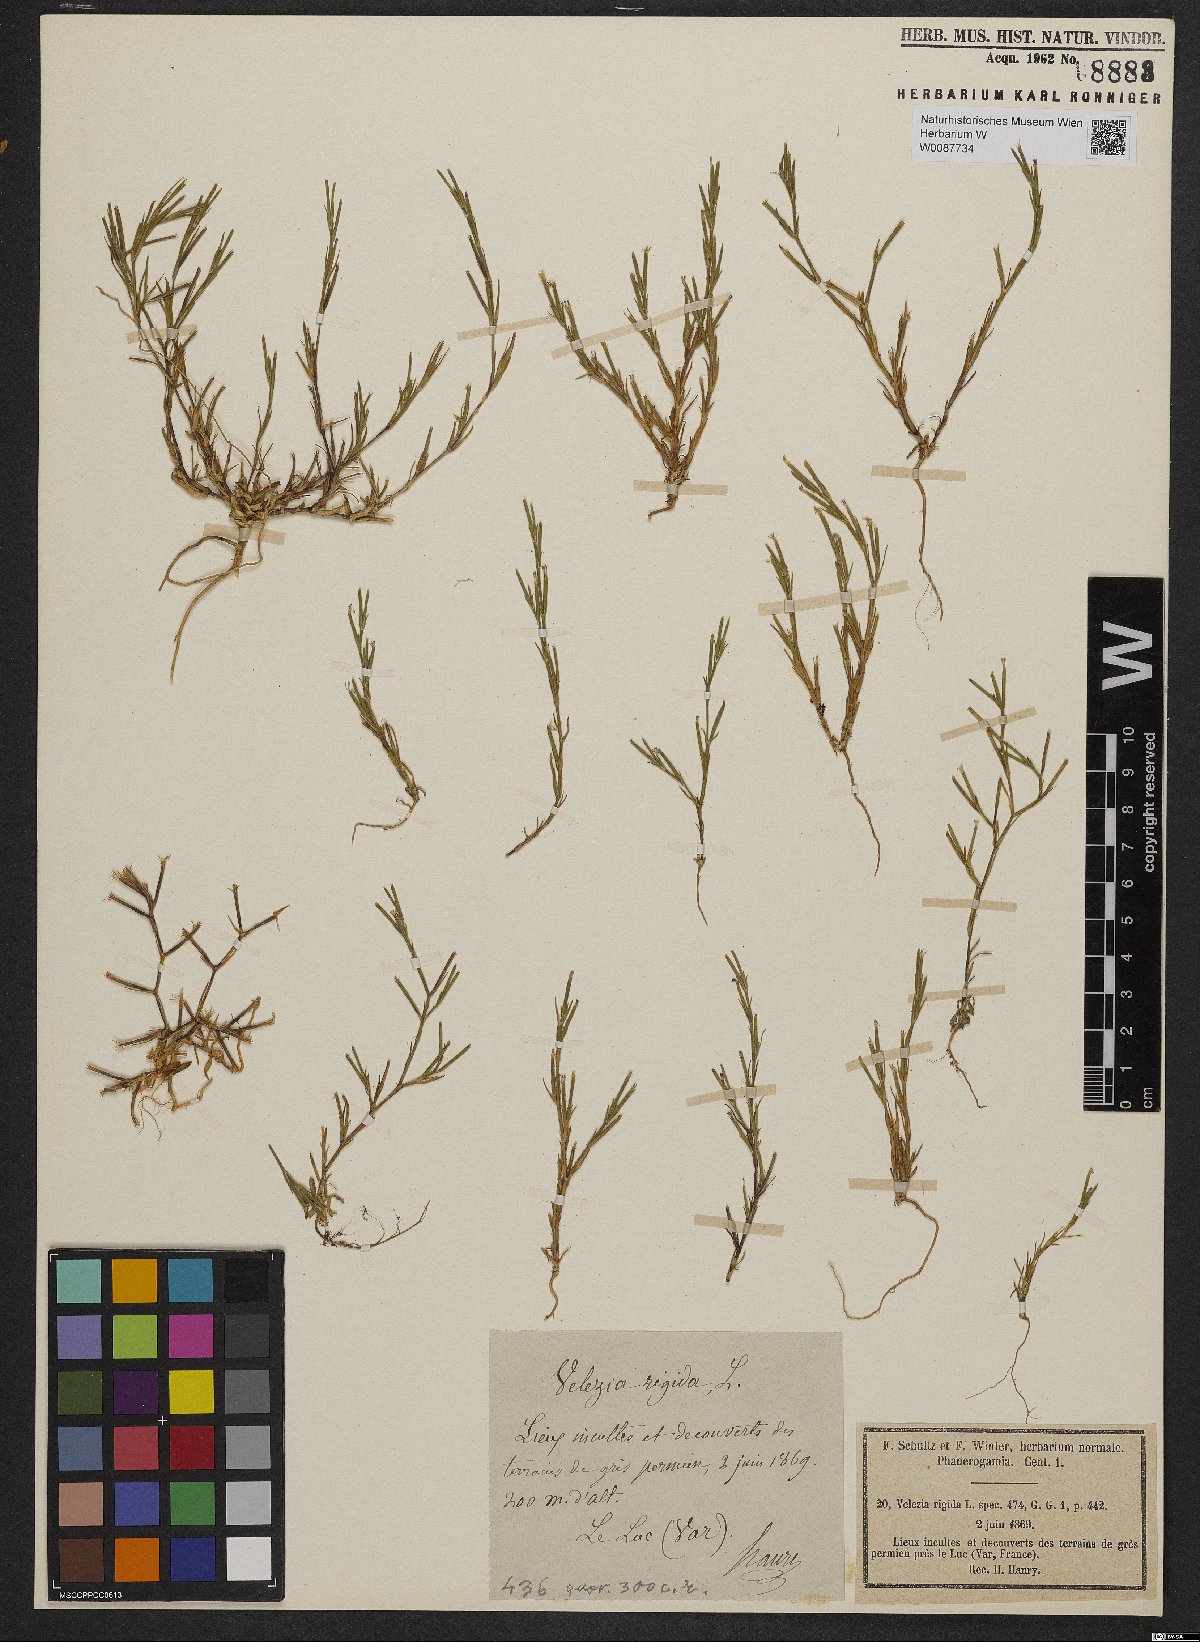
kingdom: Plantae
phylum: Tracheophyta
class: Magnoliopsida
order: Caryophyllales
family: Caryophyllaceae
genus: Dianthus
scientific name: Dianthus nudiflorus
